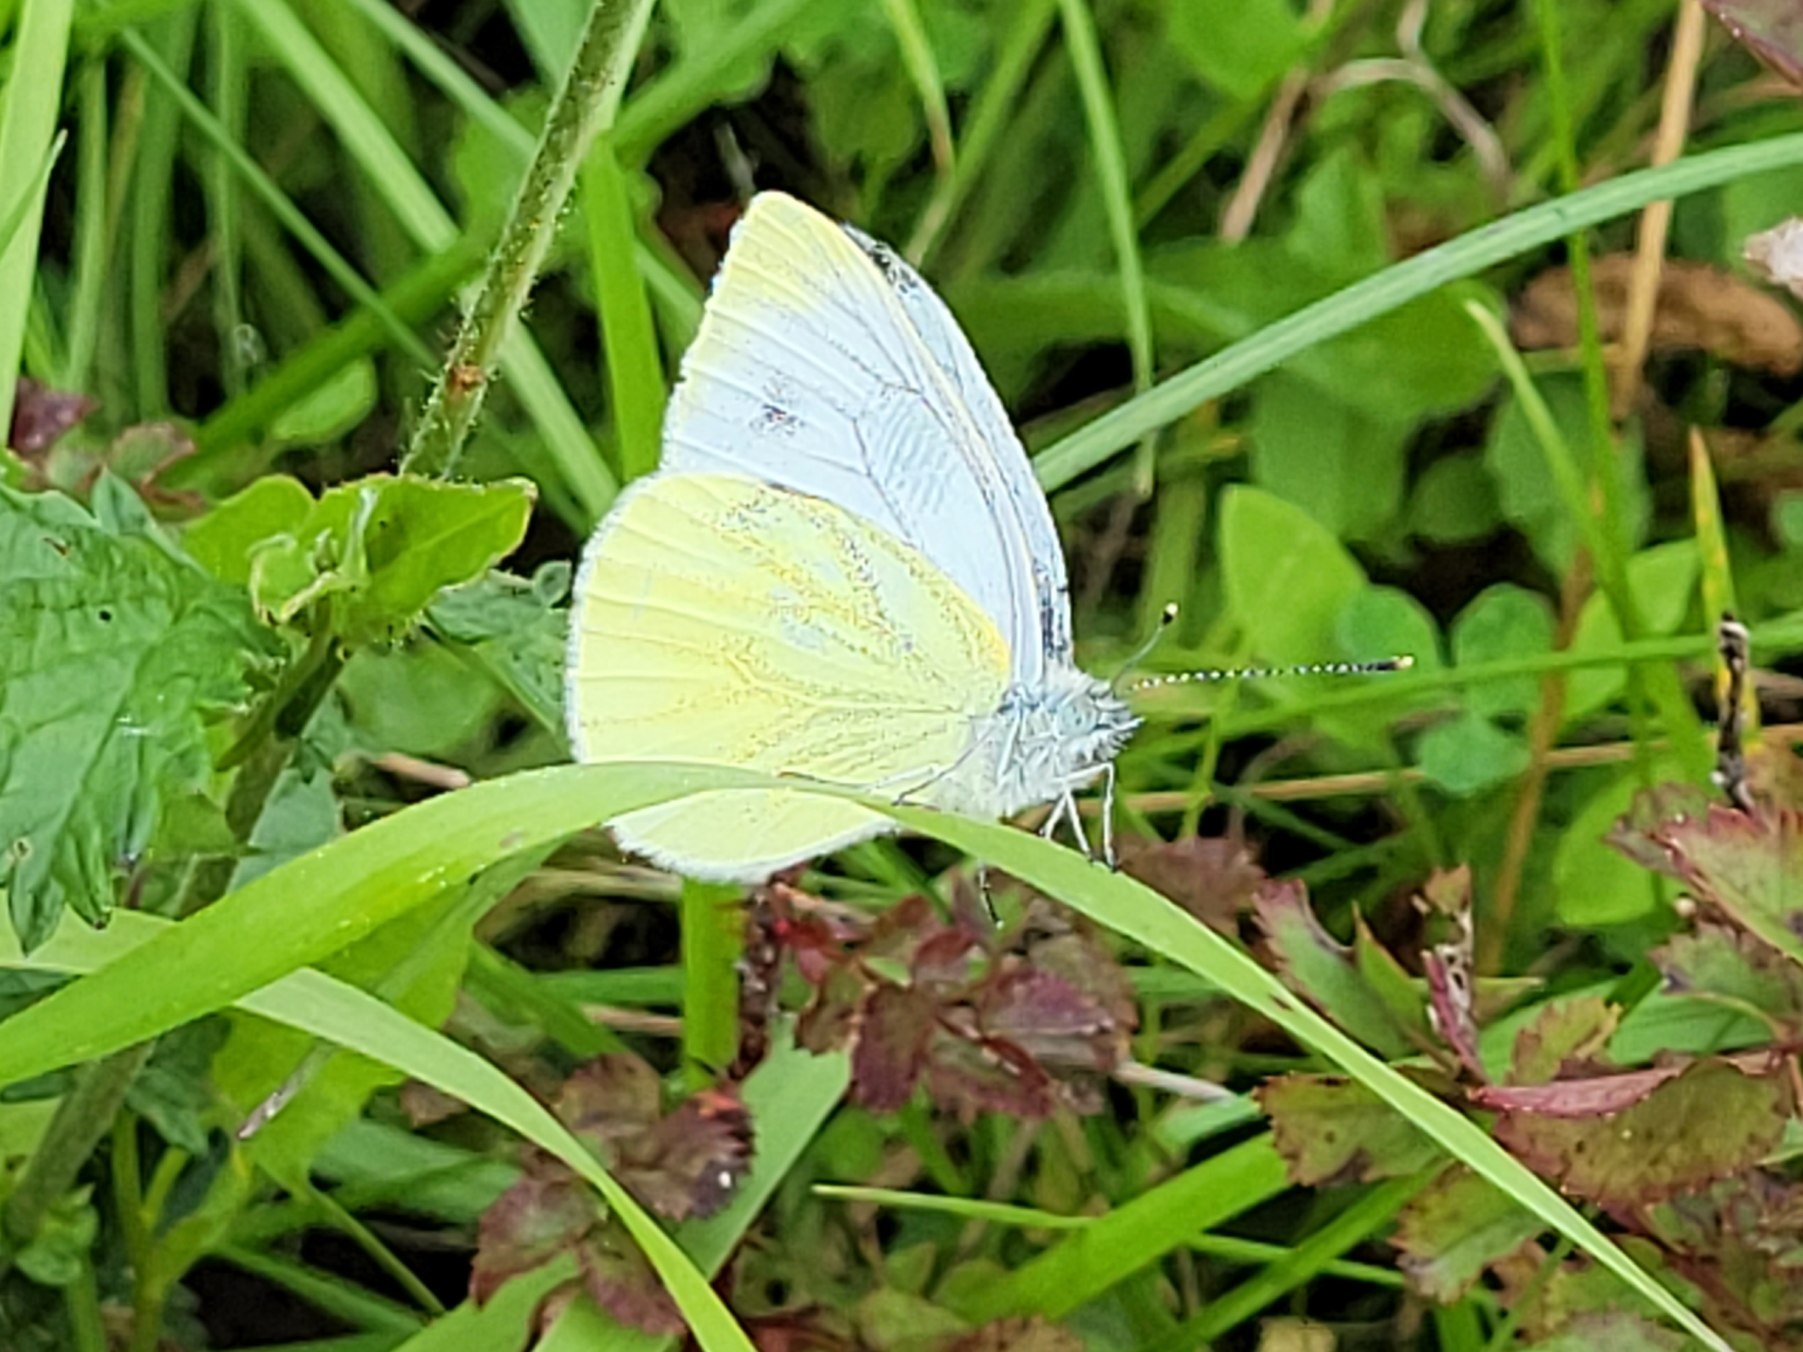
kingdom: Animalia
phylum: Arthropoda
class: Insecta
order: Lepidoptera
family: Pieridae
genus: Pieris
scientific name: Pieris napi
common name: Grønåret kålsommerfugl
